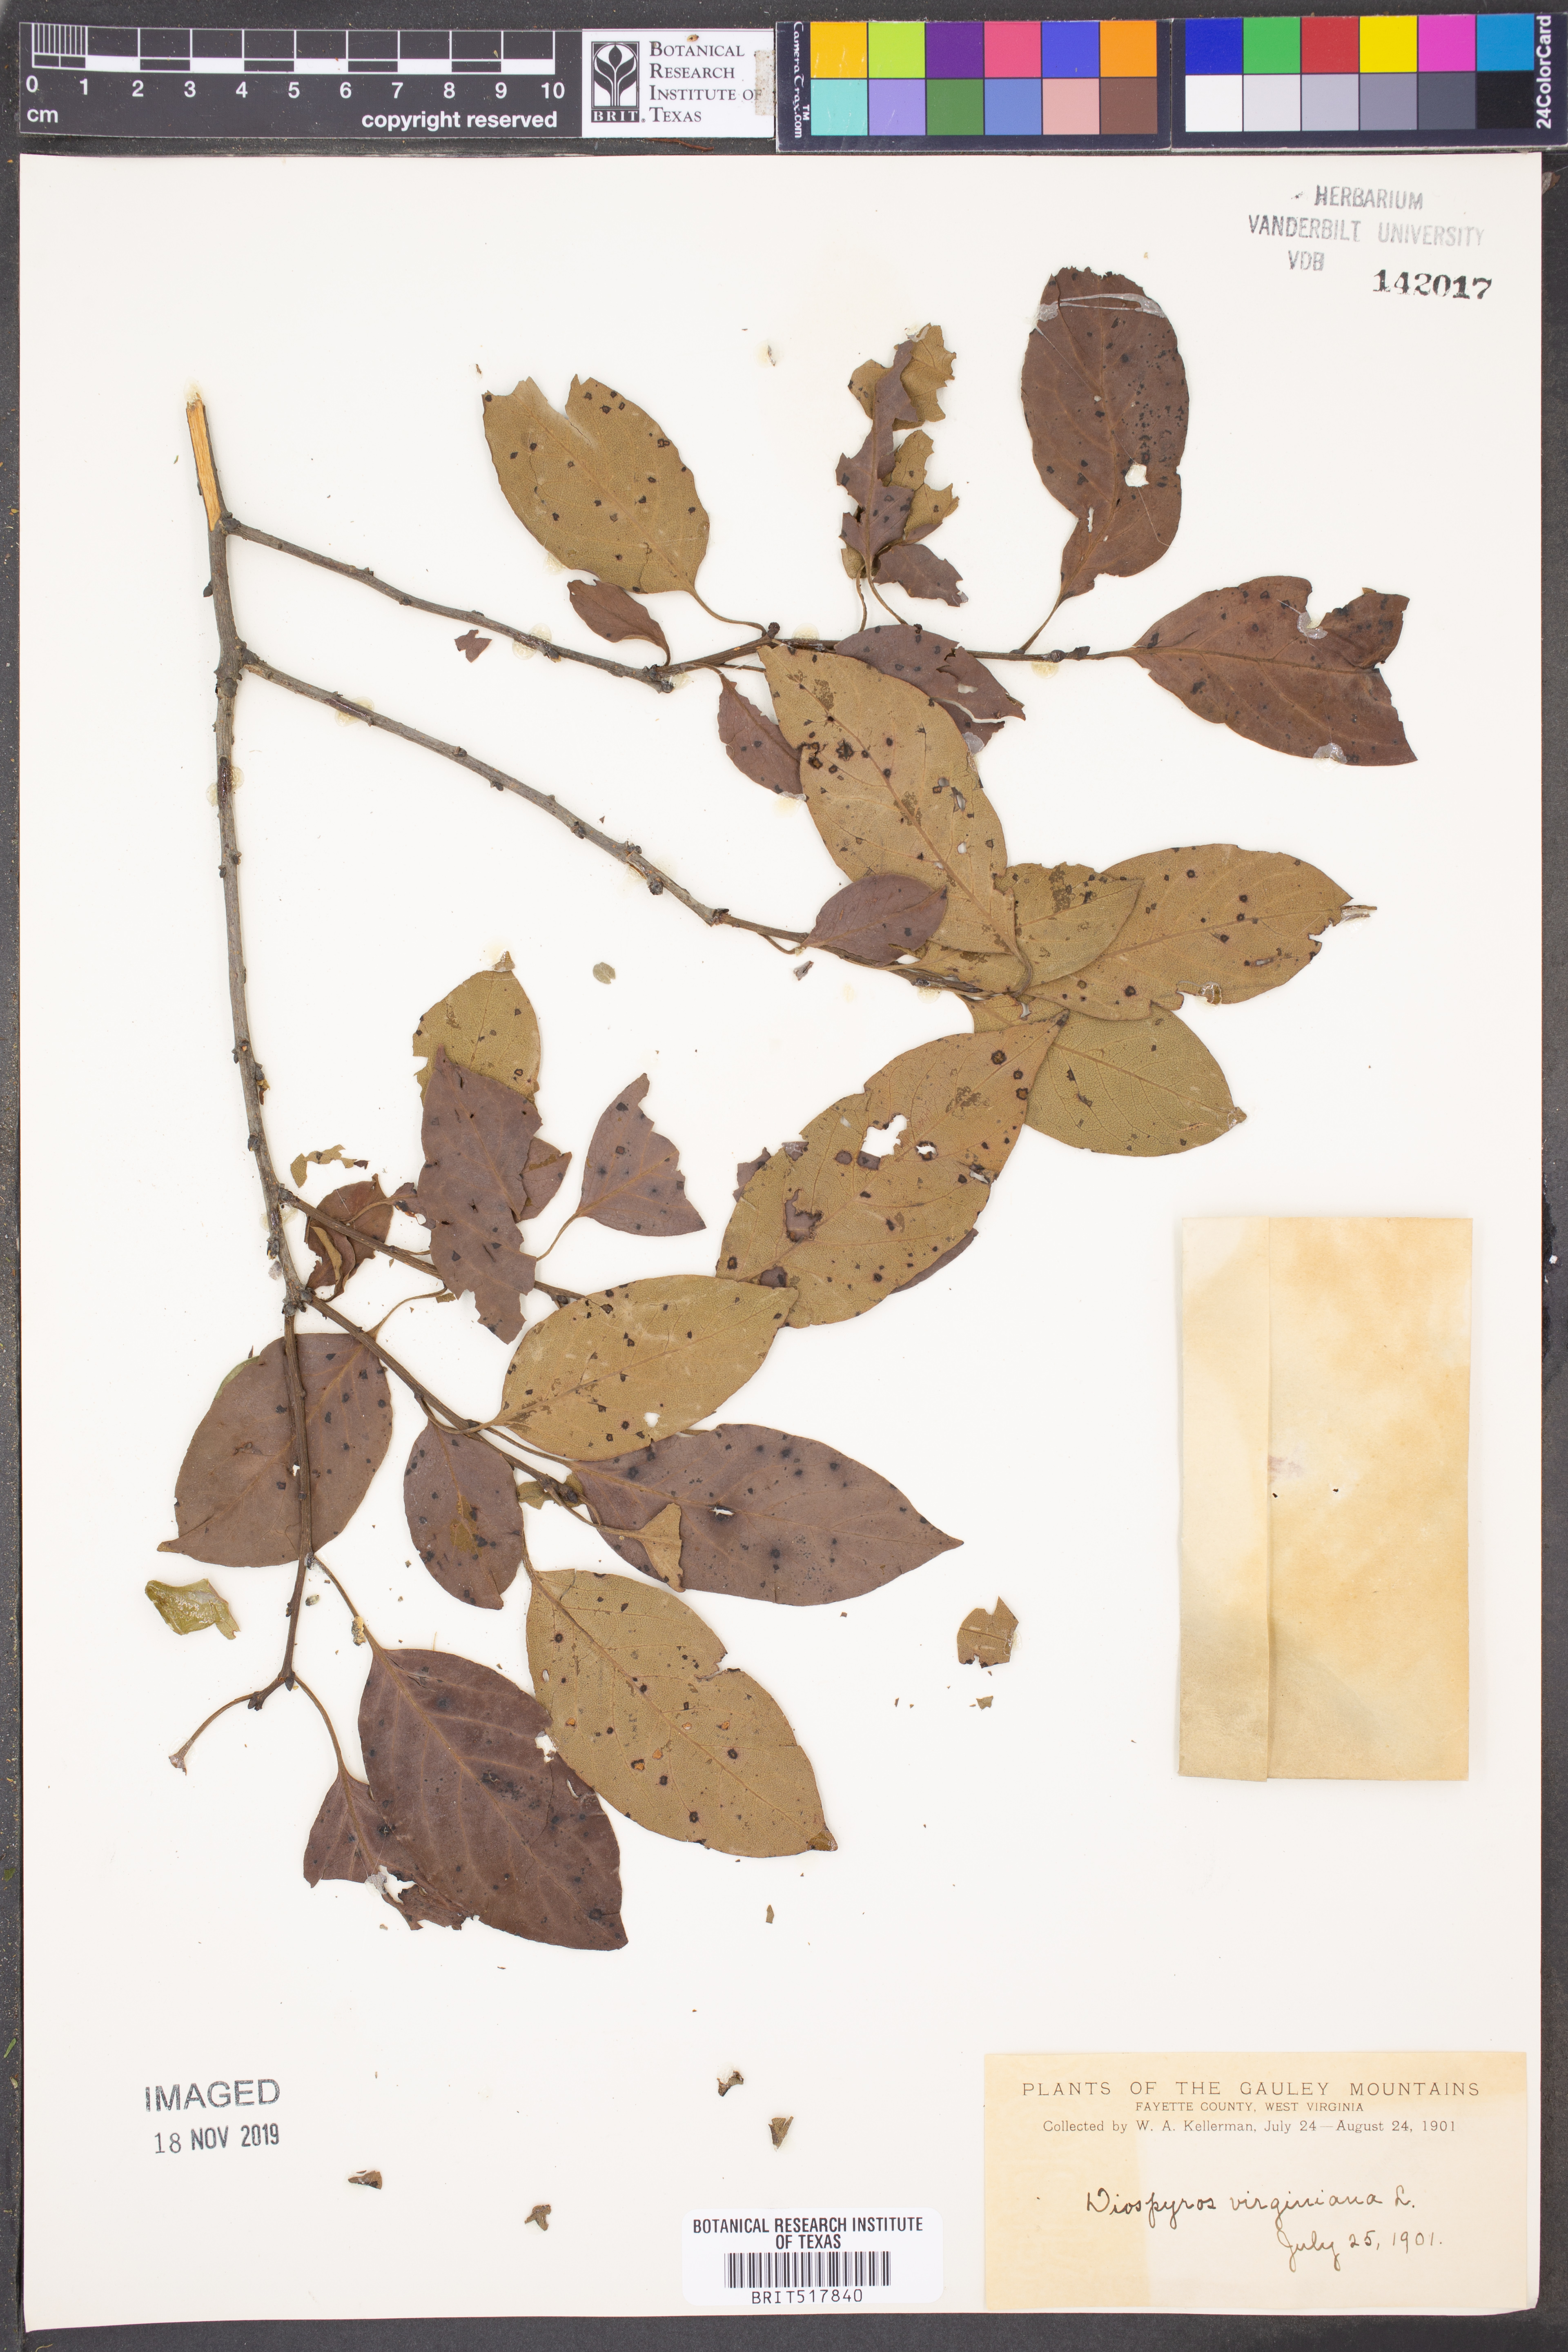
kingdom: Plantae
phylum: Tracheophyta
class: Magnoliopsida
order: Ericales
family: Ebenaceae
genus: Diospyros
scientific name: Diospyros virginiana
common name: Persimmon
